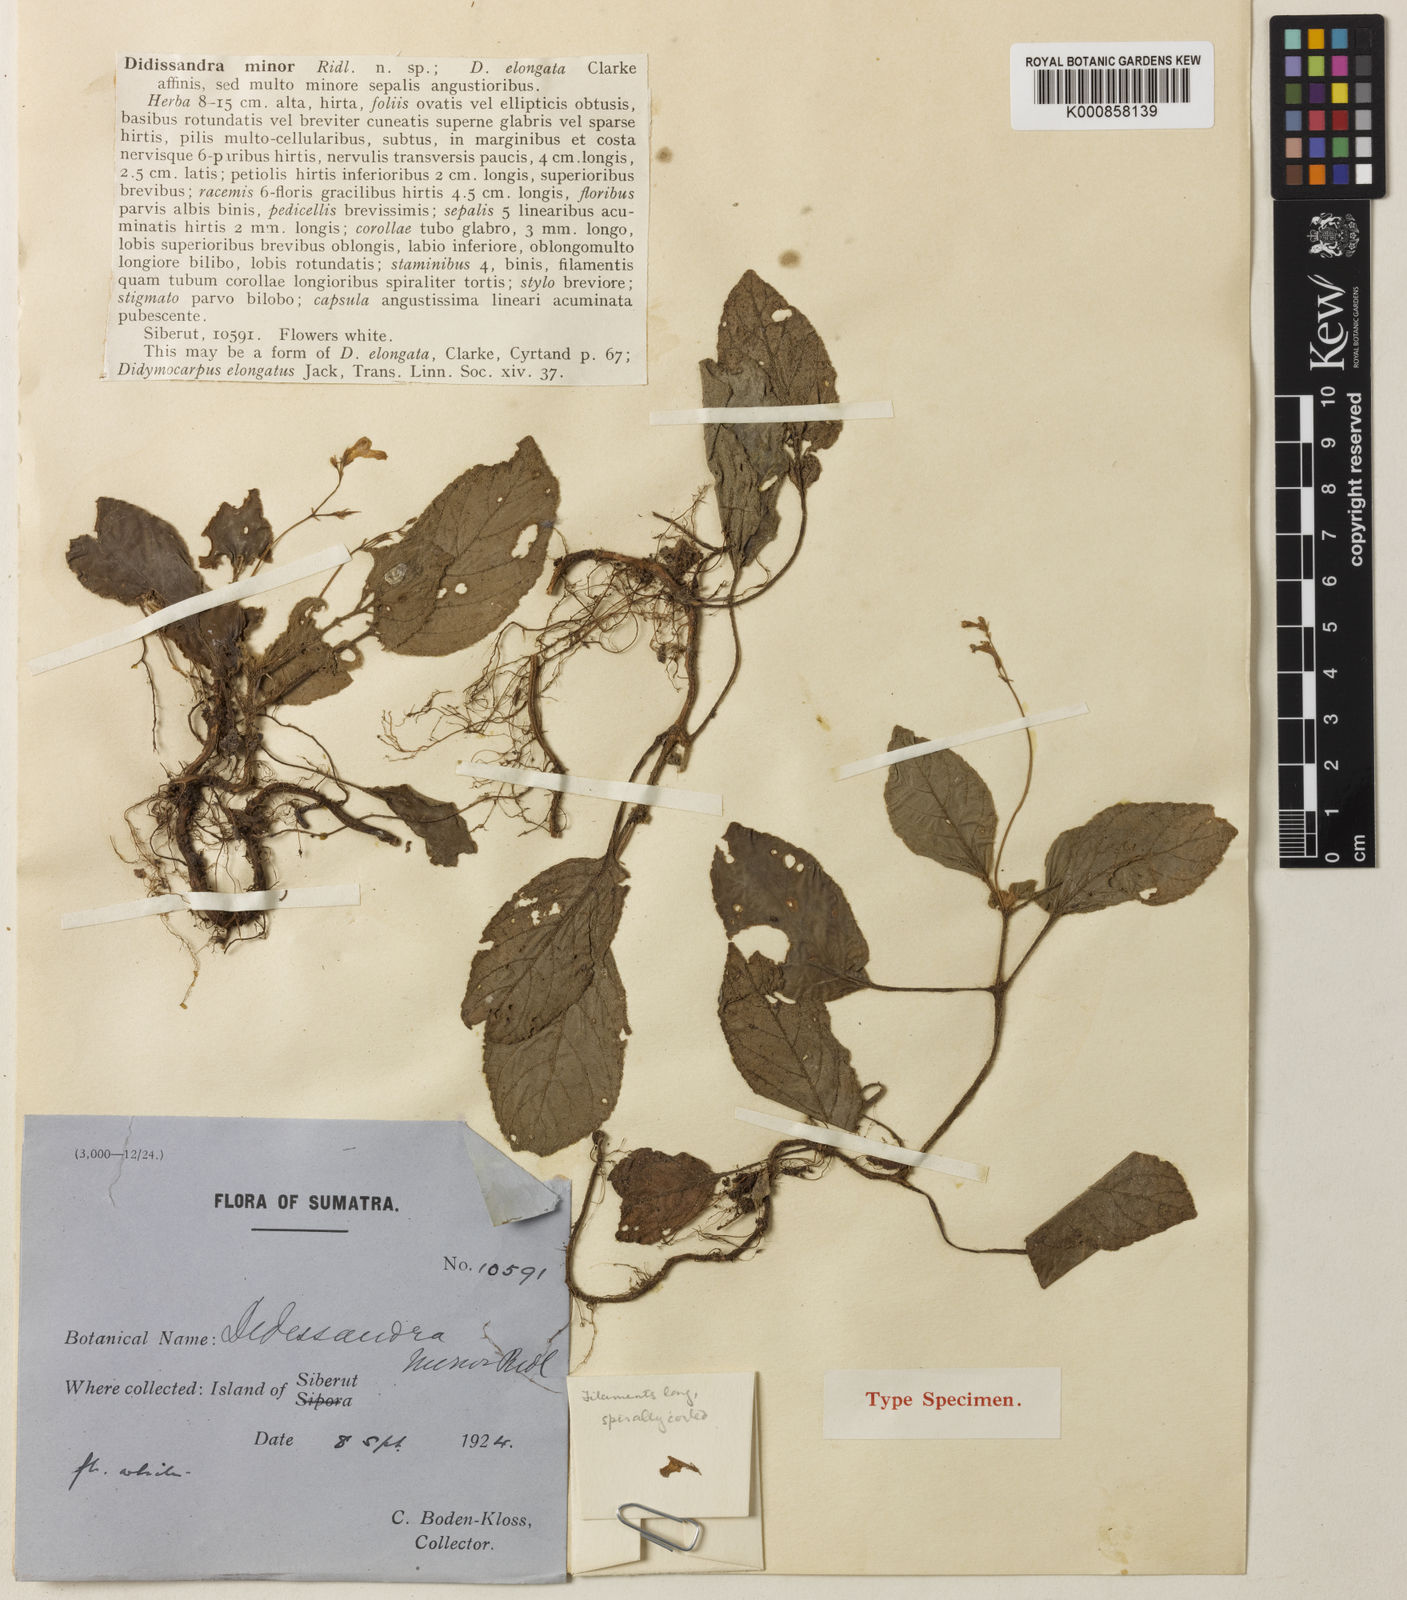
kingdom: Plantae
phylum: Tracheophyta
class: Magnoliopsida
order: Lamiales
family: Gesneriaceae
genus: Didissandra
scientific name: Didissandra elongata
